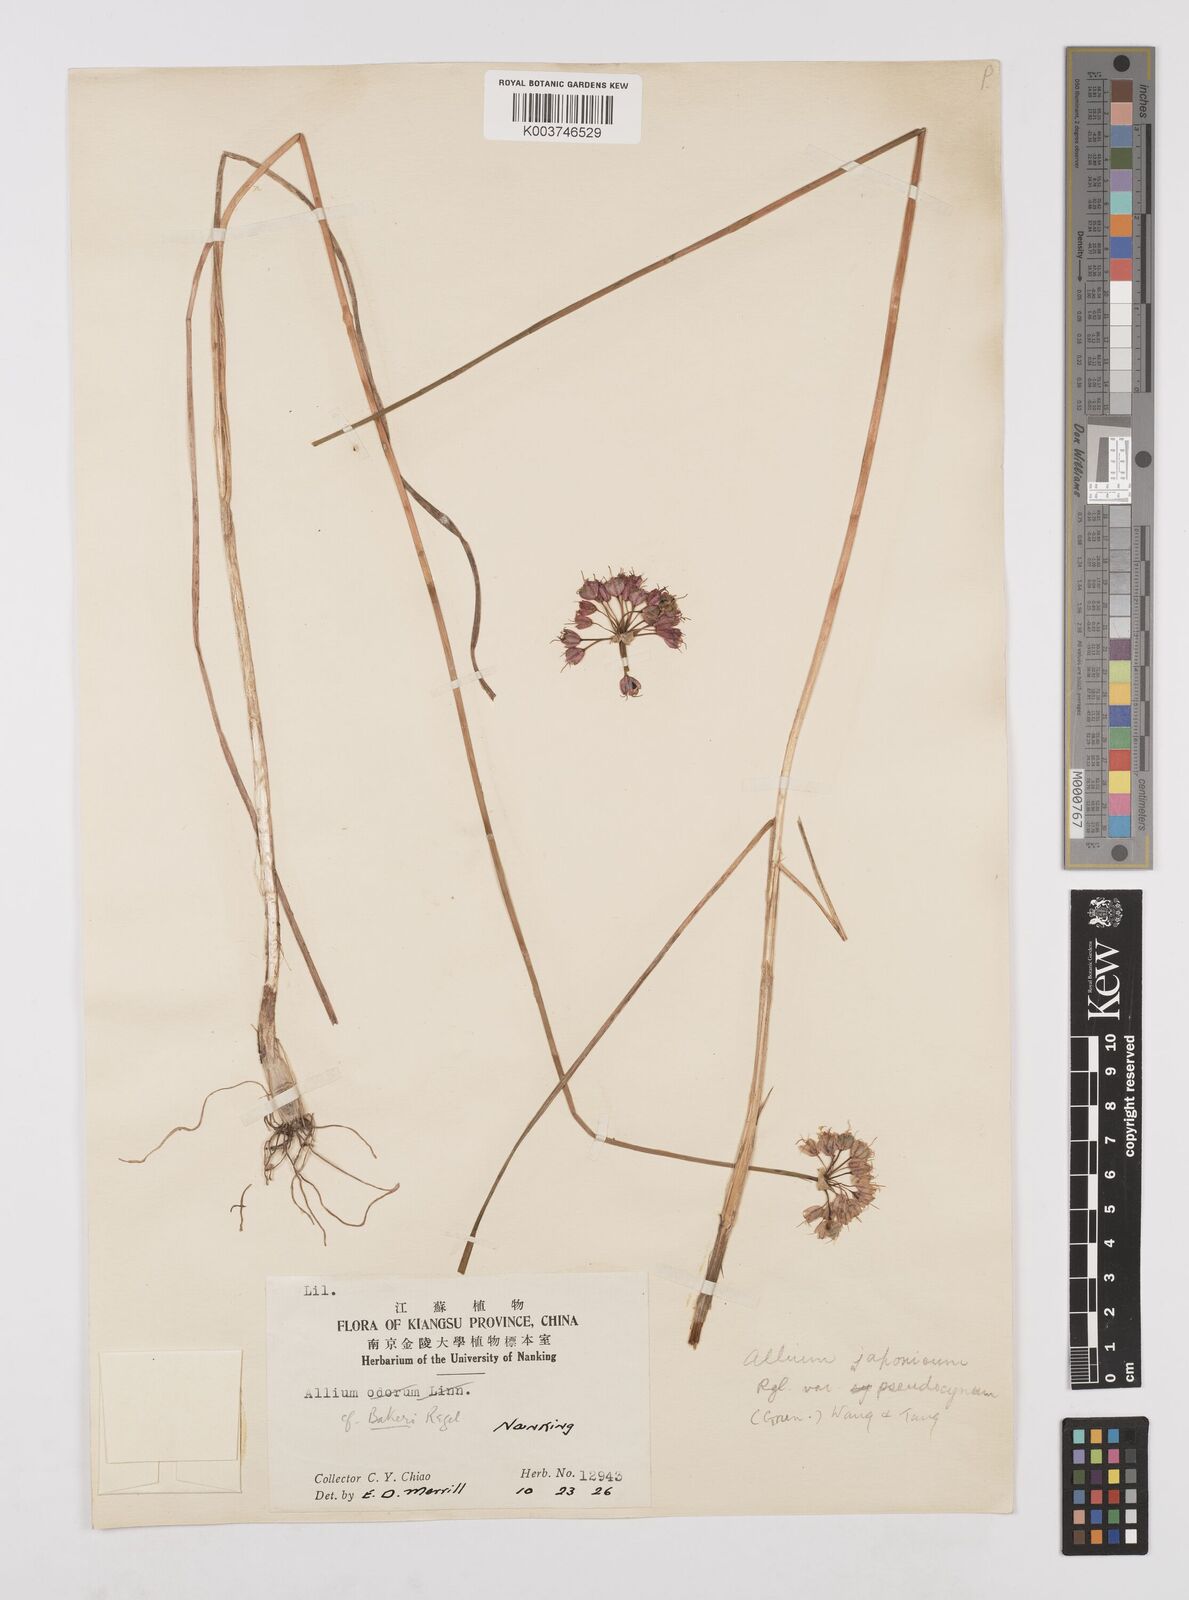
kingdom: Plantae
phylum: Tracheophyta
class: Liliopsida
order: Asparagales
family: Amaryllidaceae
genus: Allium
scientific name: Allium chinense
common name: Japanese scallion
